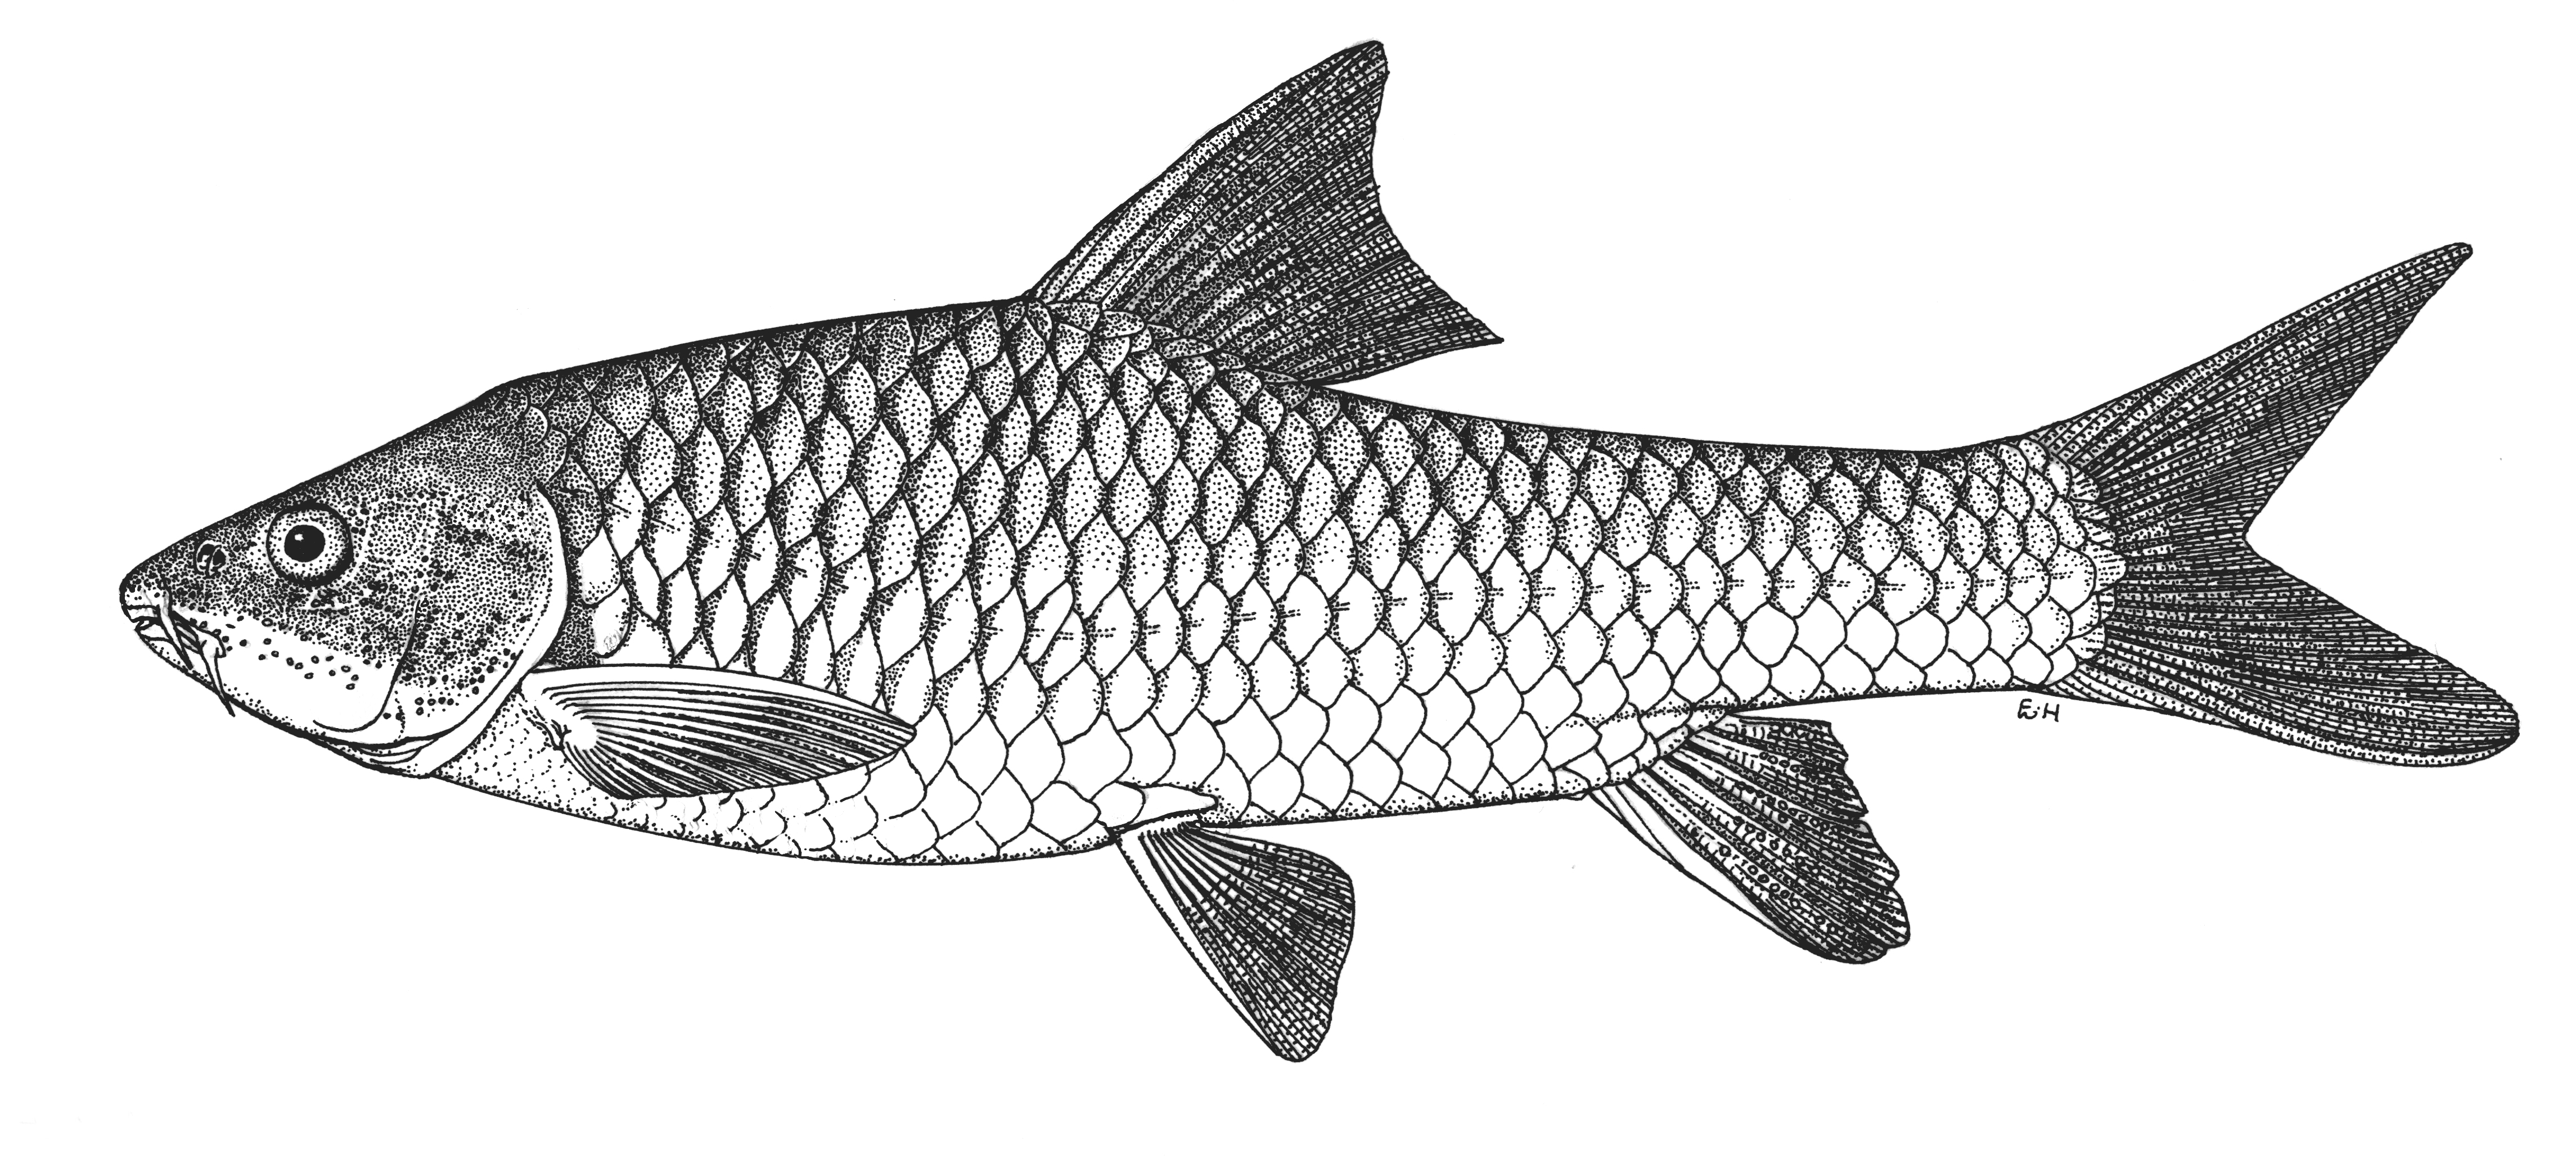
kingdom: Animalia
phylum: Chordata
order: Cypriniformes
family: Cyprinidae
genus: Labeobarbus
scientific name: Labeobarbus nthuwa
